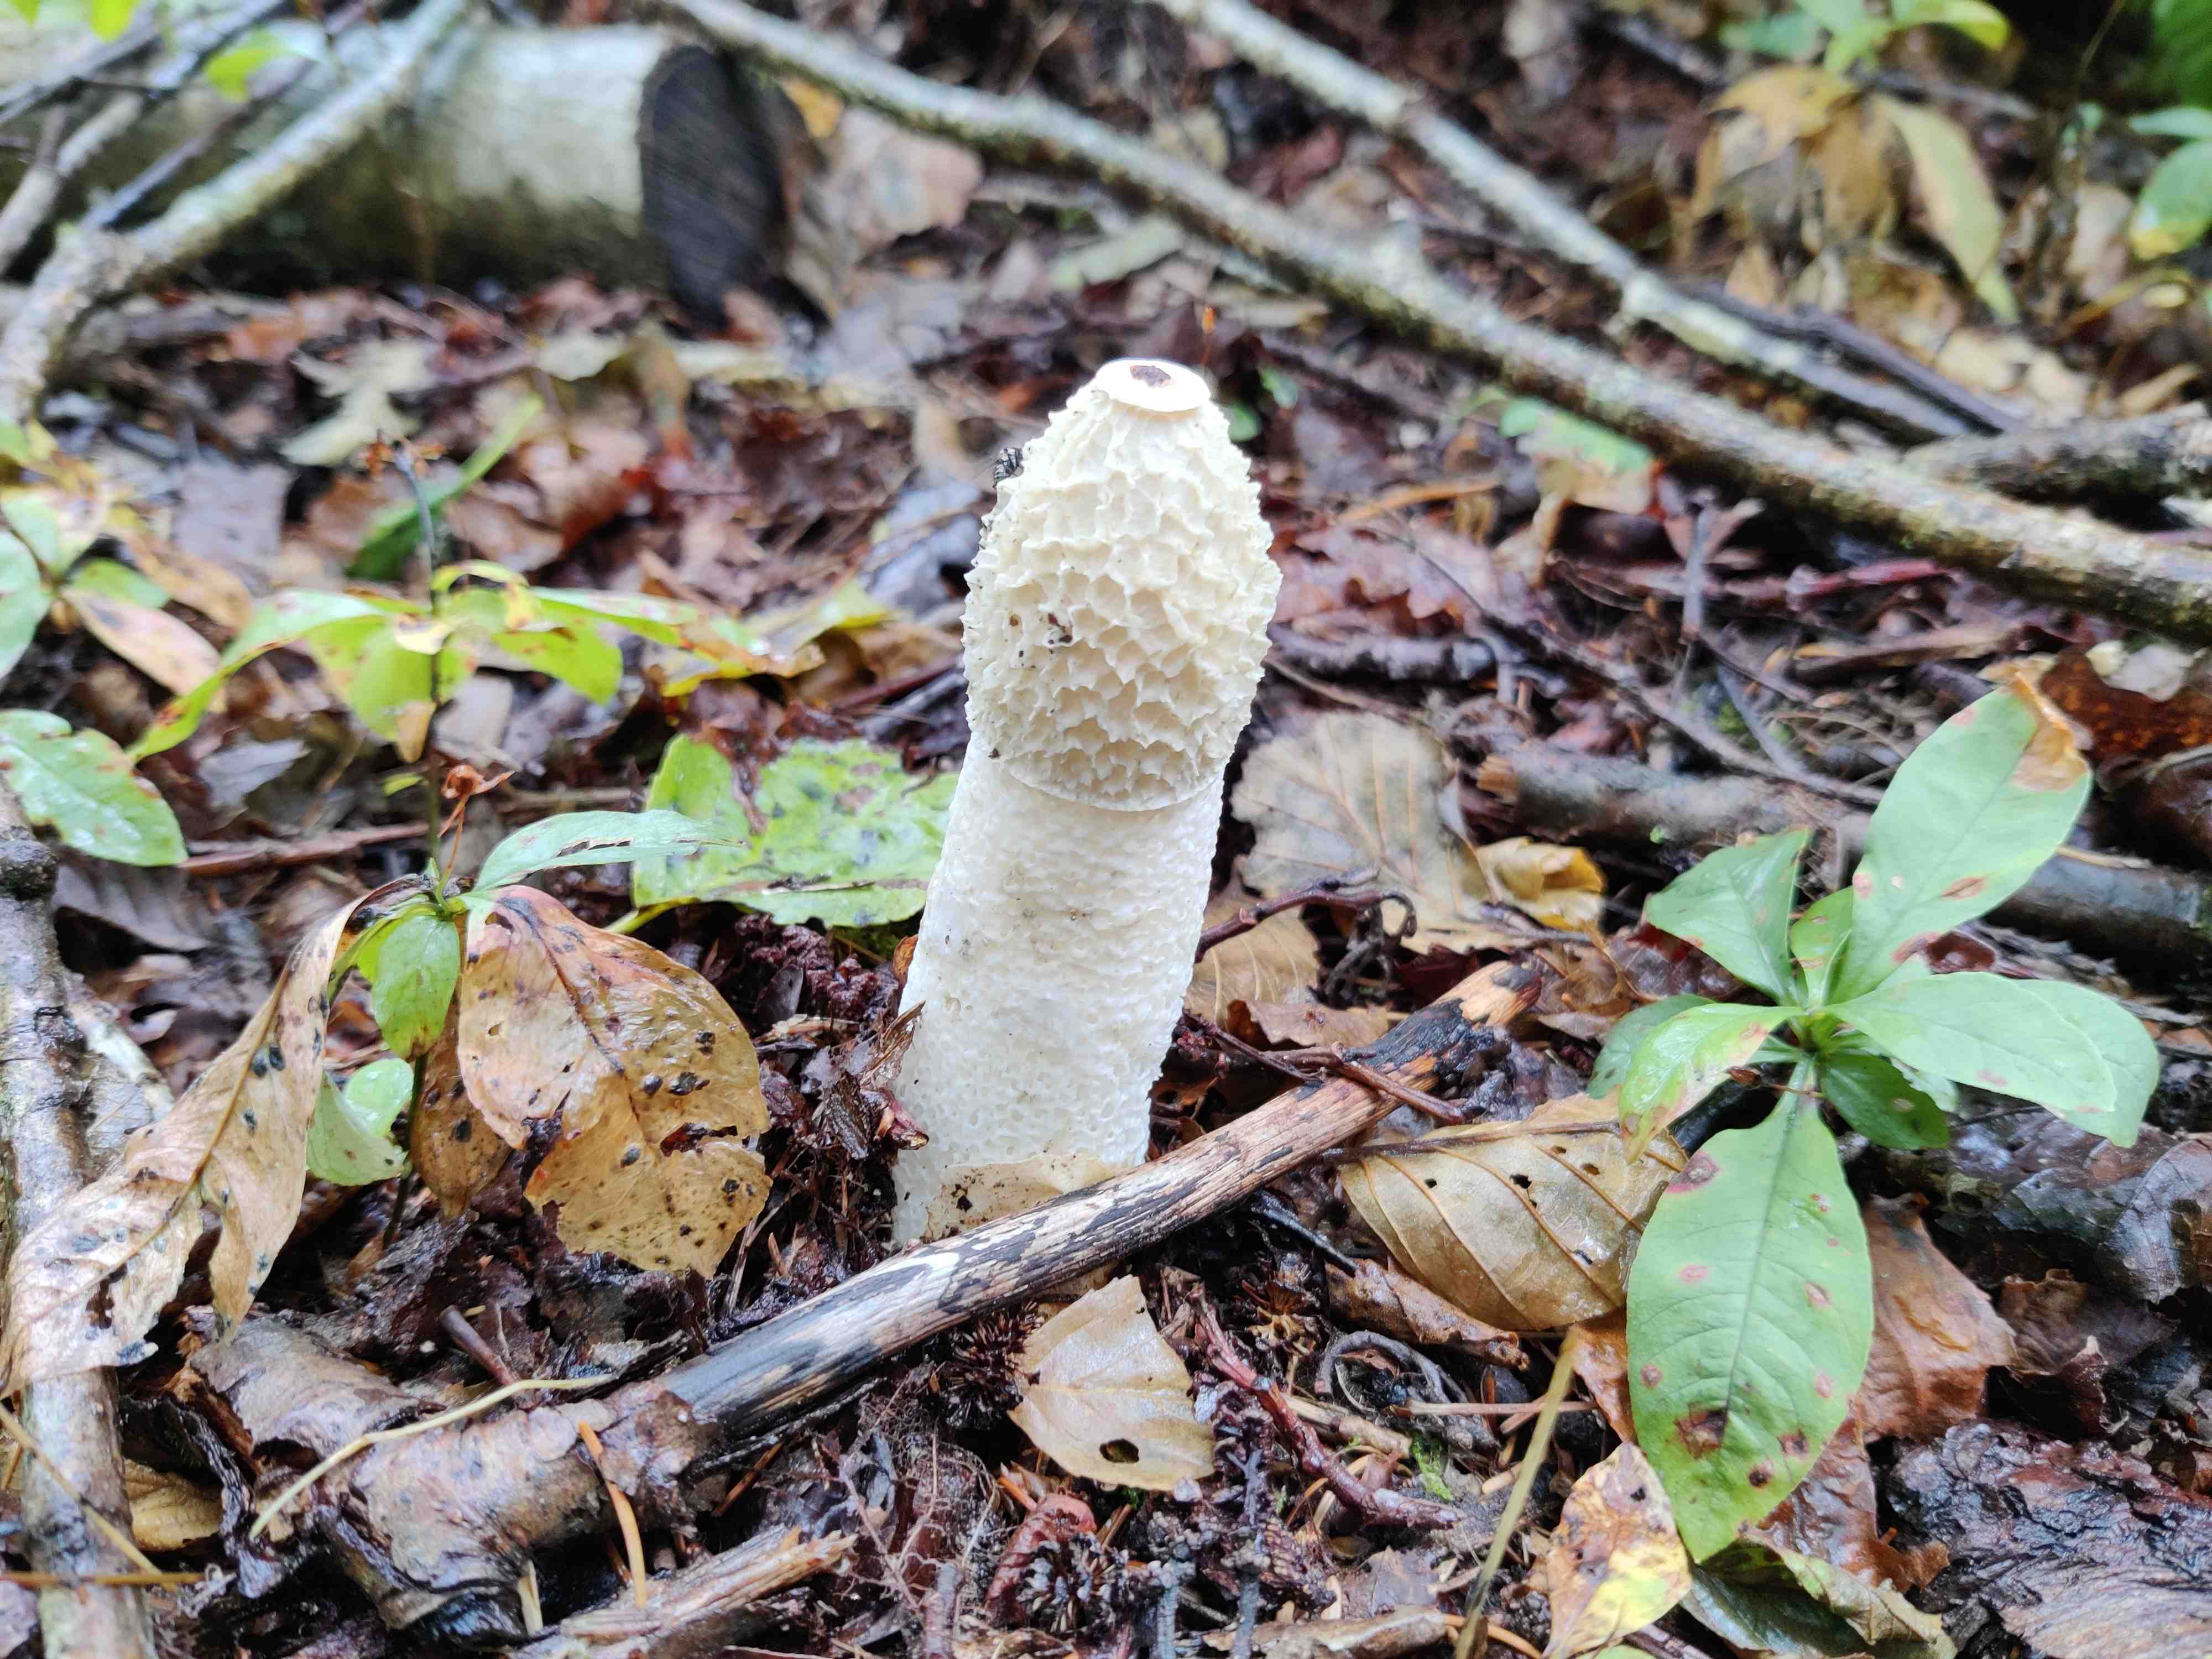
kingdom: Fungi
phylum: Basidiomycota
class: Agaricomycetes
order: Phallales
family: Phallaceae
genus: Phallus
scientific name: Phallus impudicus
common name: almindelig stinksvamp
